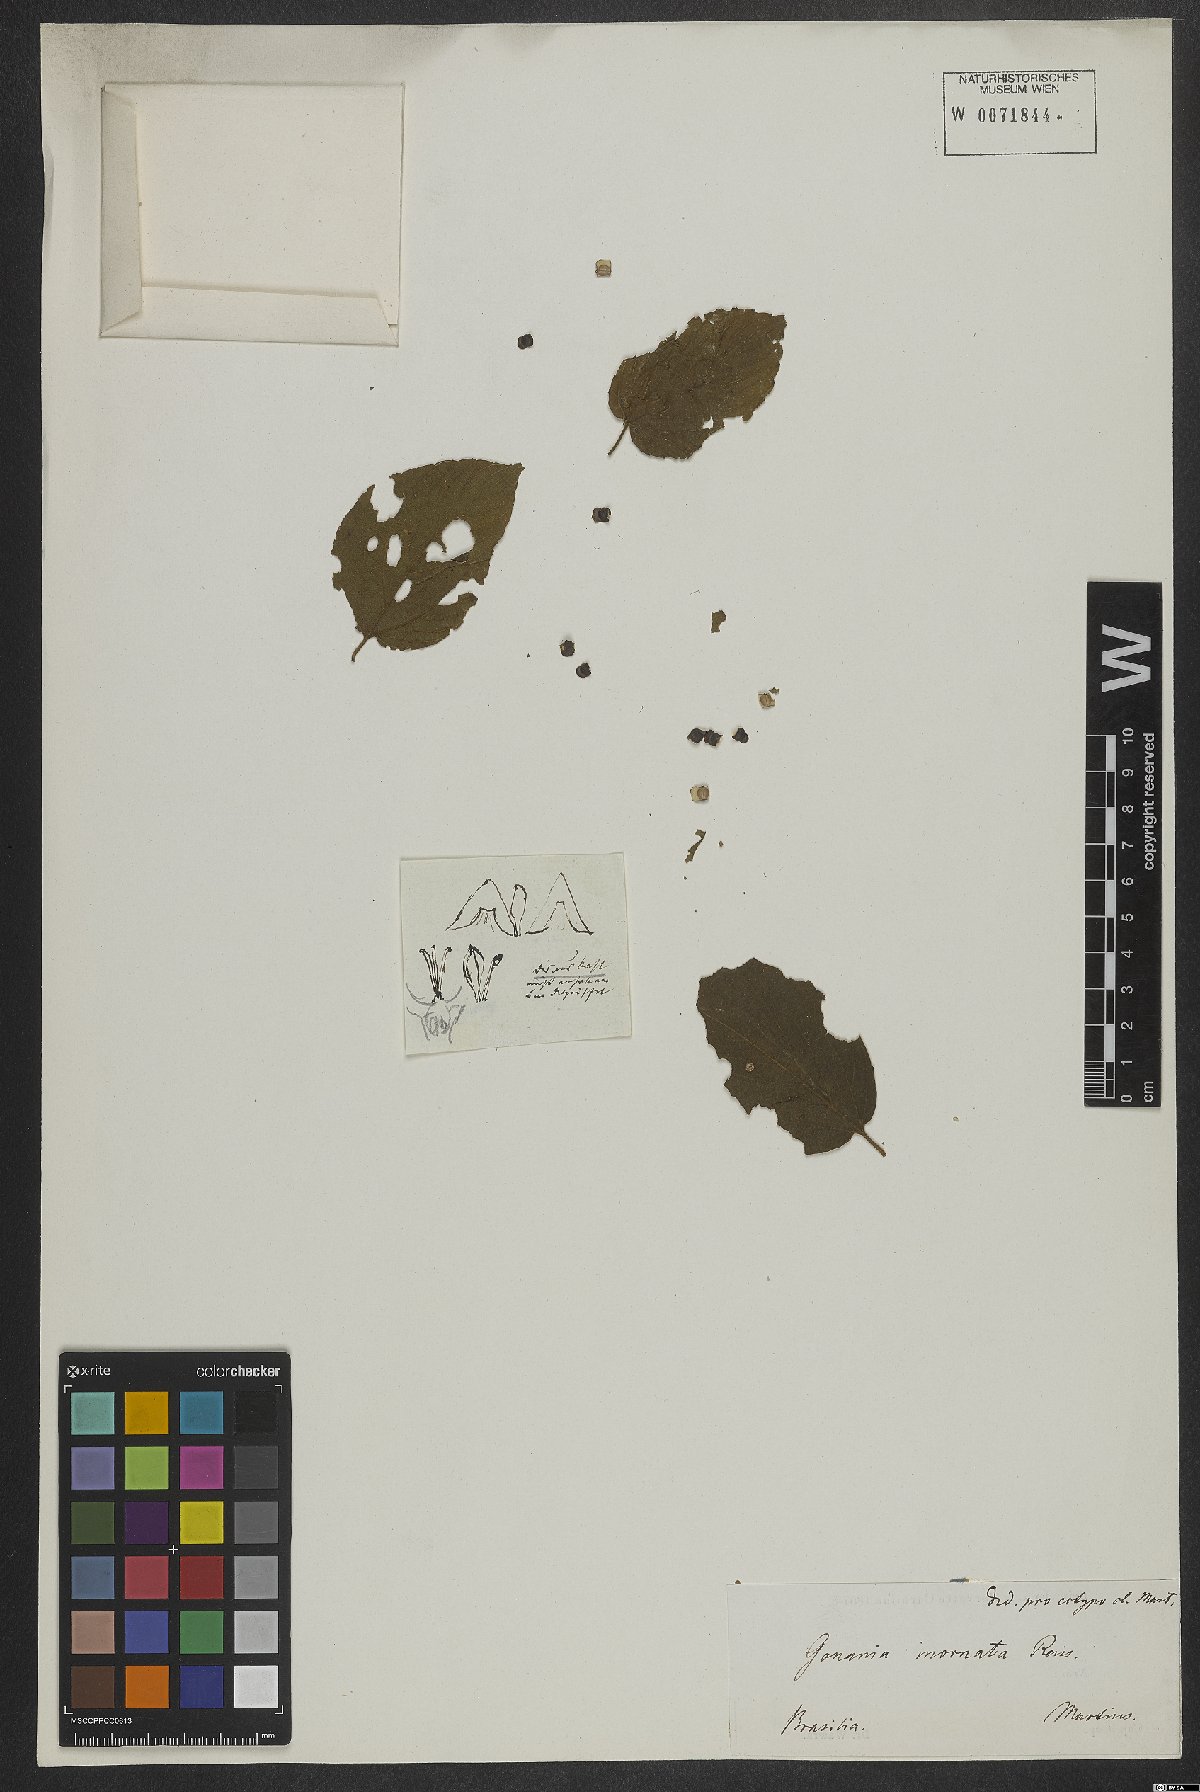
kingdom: Plantae
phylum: Tracheophyta
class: Magnoliopsida
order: Rosales
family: Rhamnaceae
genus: Gouania
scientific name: Gouania inornata
